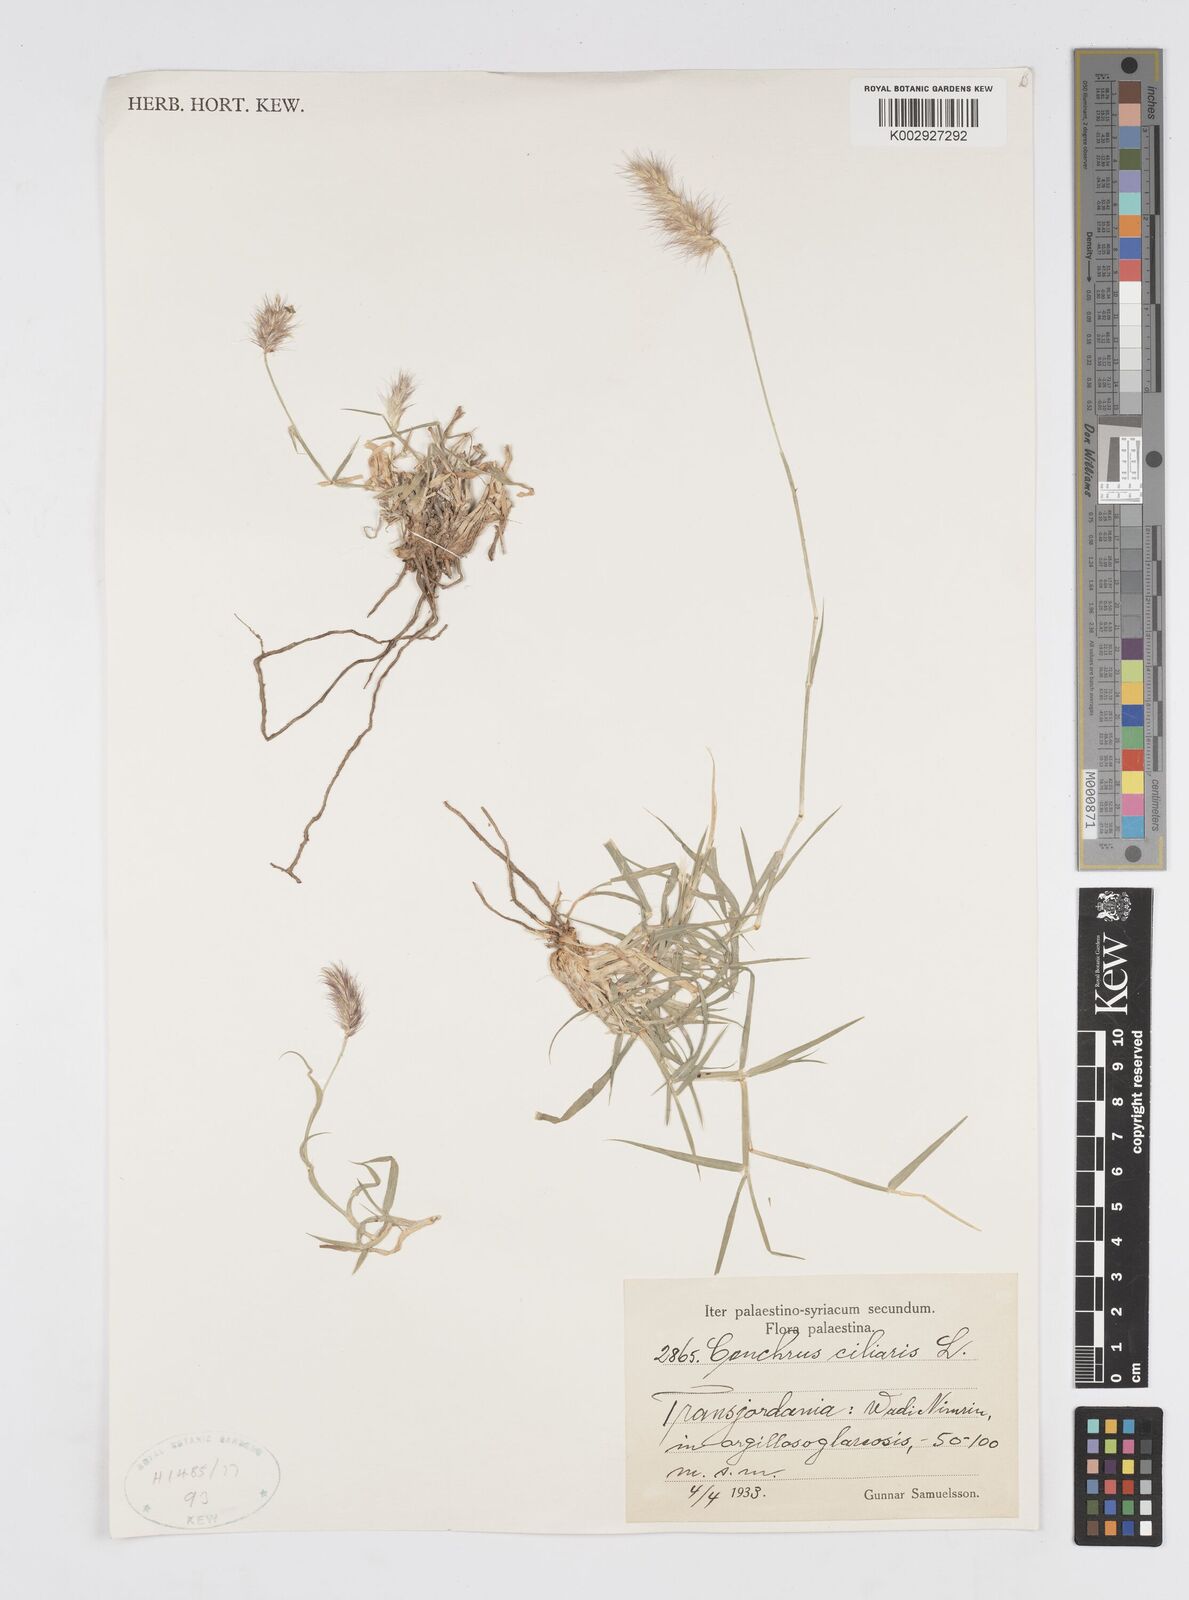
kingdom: Plantae
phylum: Tracheophyta
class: Liliopsida
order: Poales
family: Poaceae
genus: Cenchrus
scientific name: Cenchrus ciliaris
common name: Buffelgrass
